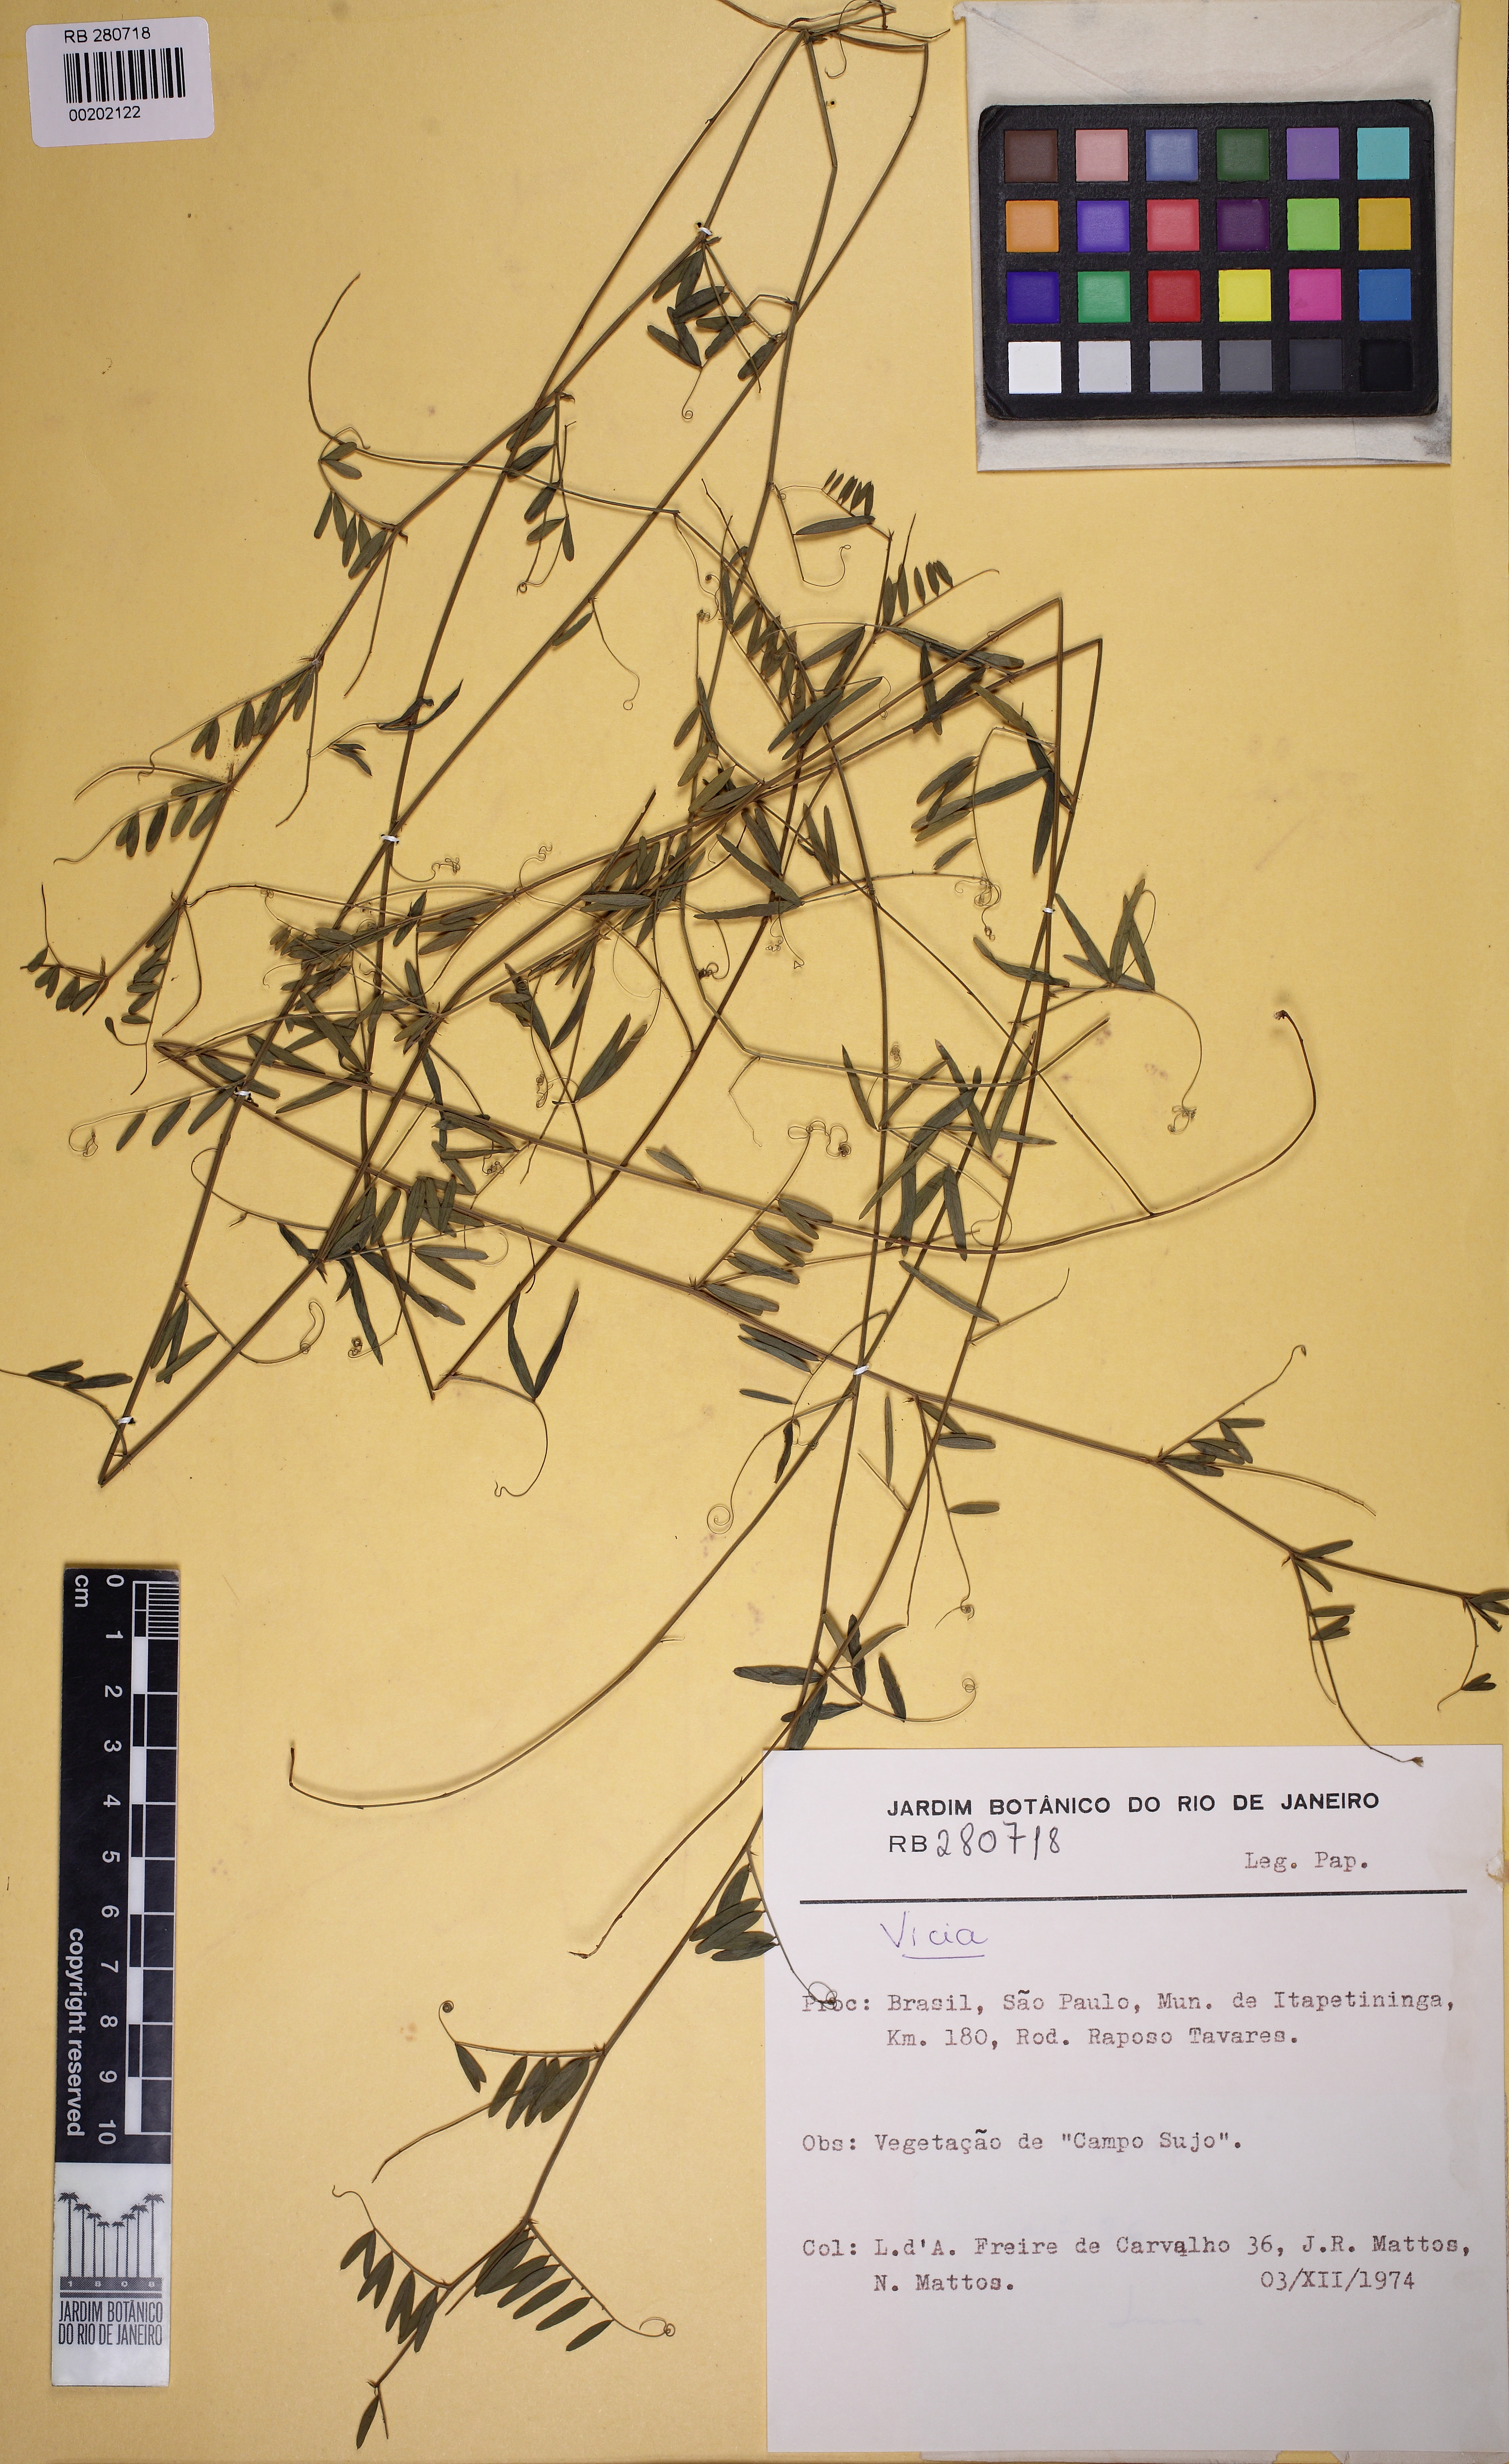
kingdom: Plantae
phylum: Tracheophyta
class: Magnoliopsida
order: Fabales
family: Fabaceae
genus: Vicia
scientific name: Vicia abbreviata
